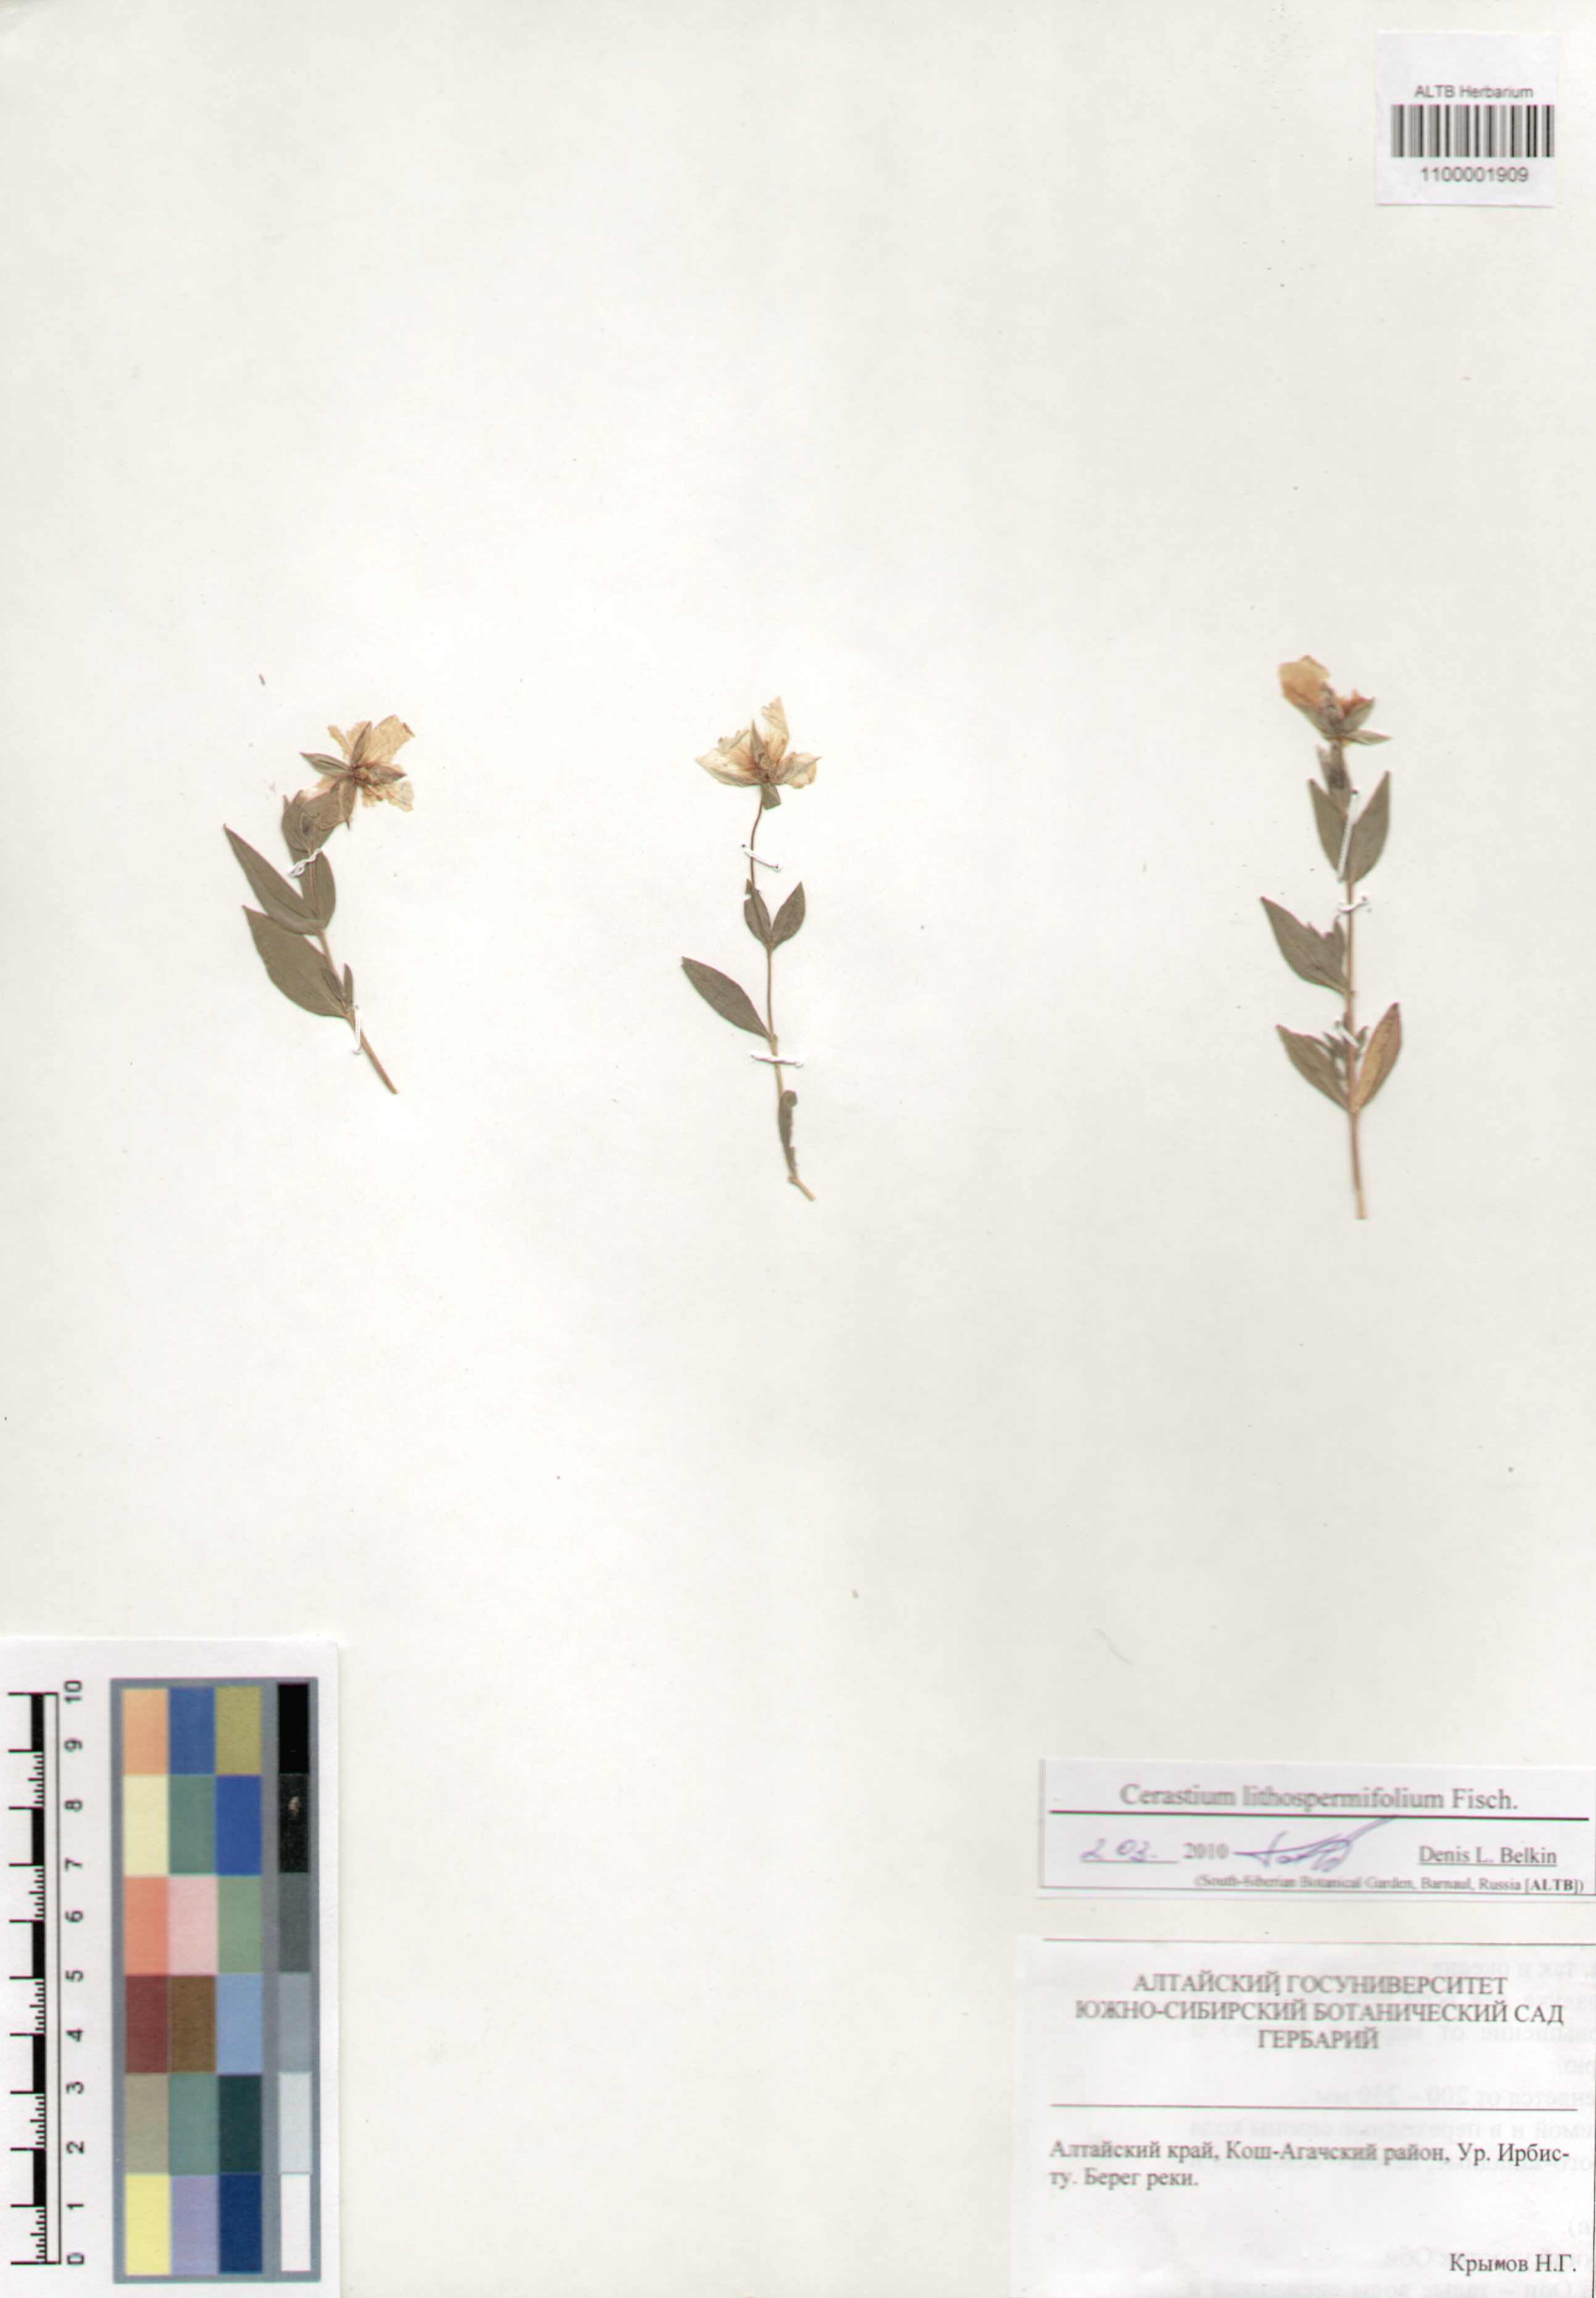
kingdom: Plantae
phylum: Tracheophyta
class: Magnoliopsida
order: Caryophyllales
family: Caryophyllaceae
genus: Cerastium
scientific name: Cerastium lithospermifolium
